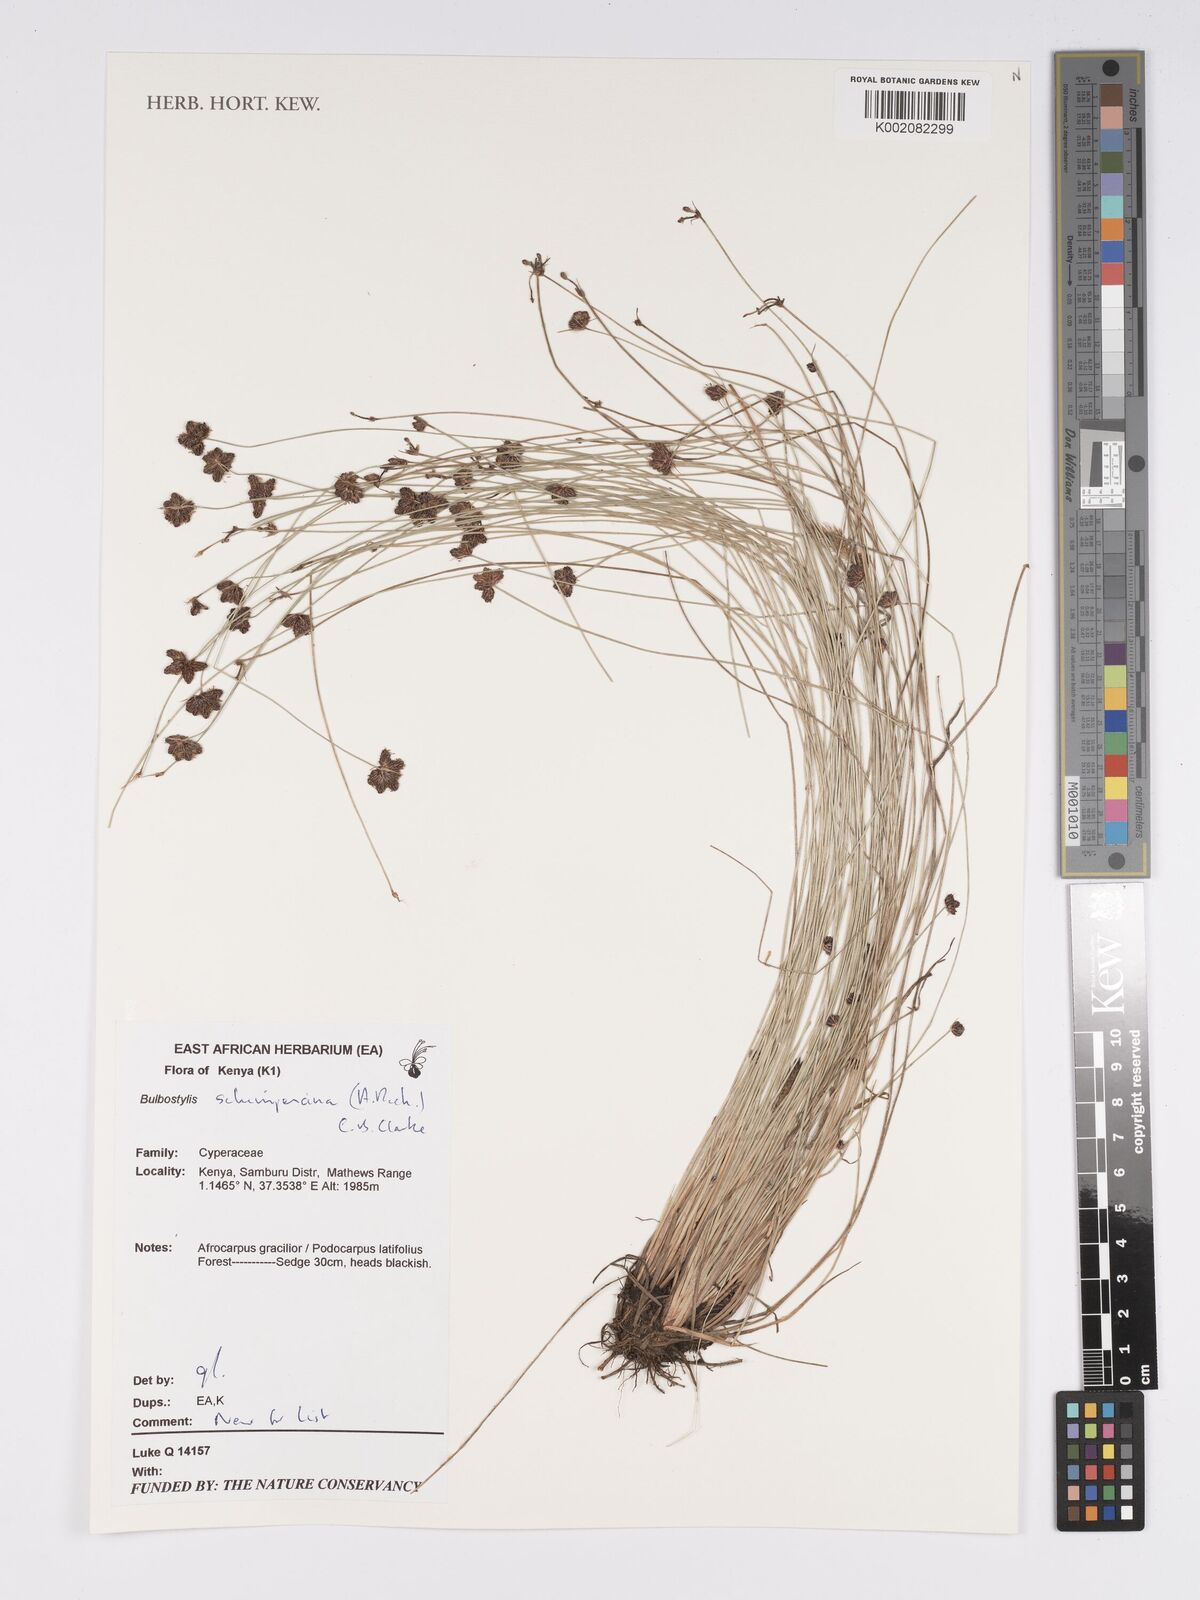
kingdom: Plantae
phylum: Tracheophyta
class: Liliopsida
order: Poales
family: Cyperaceae
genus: Bulbostylis
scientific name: Bulbostylis schimperiana
